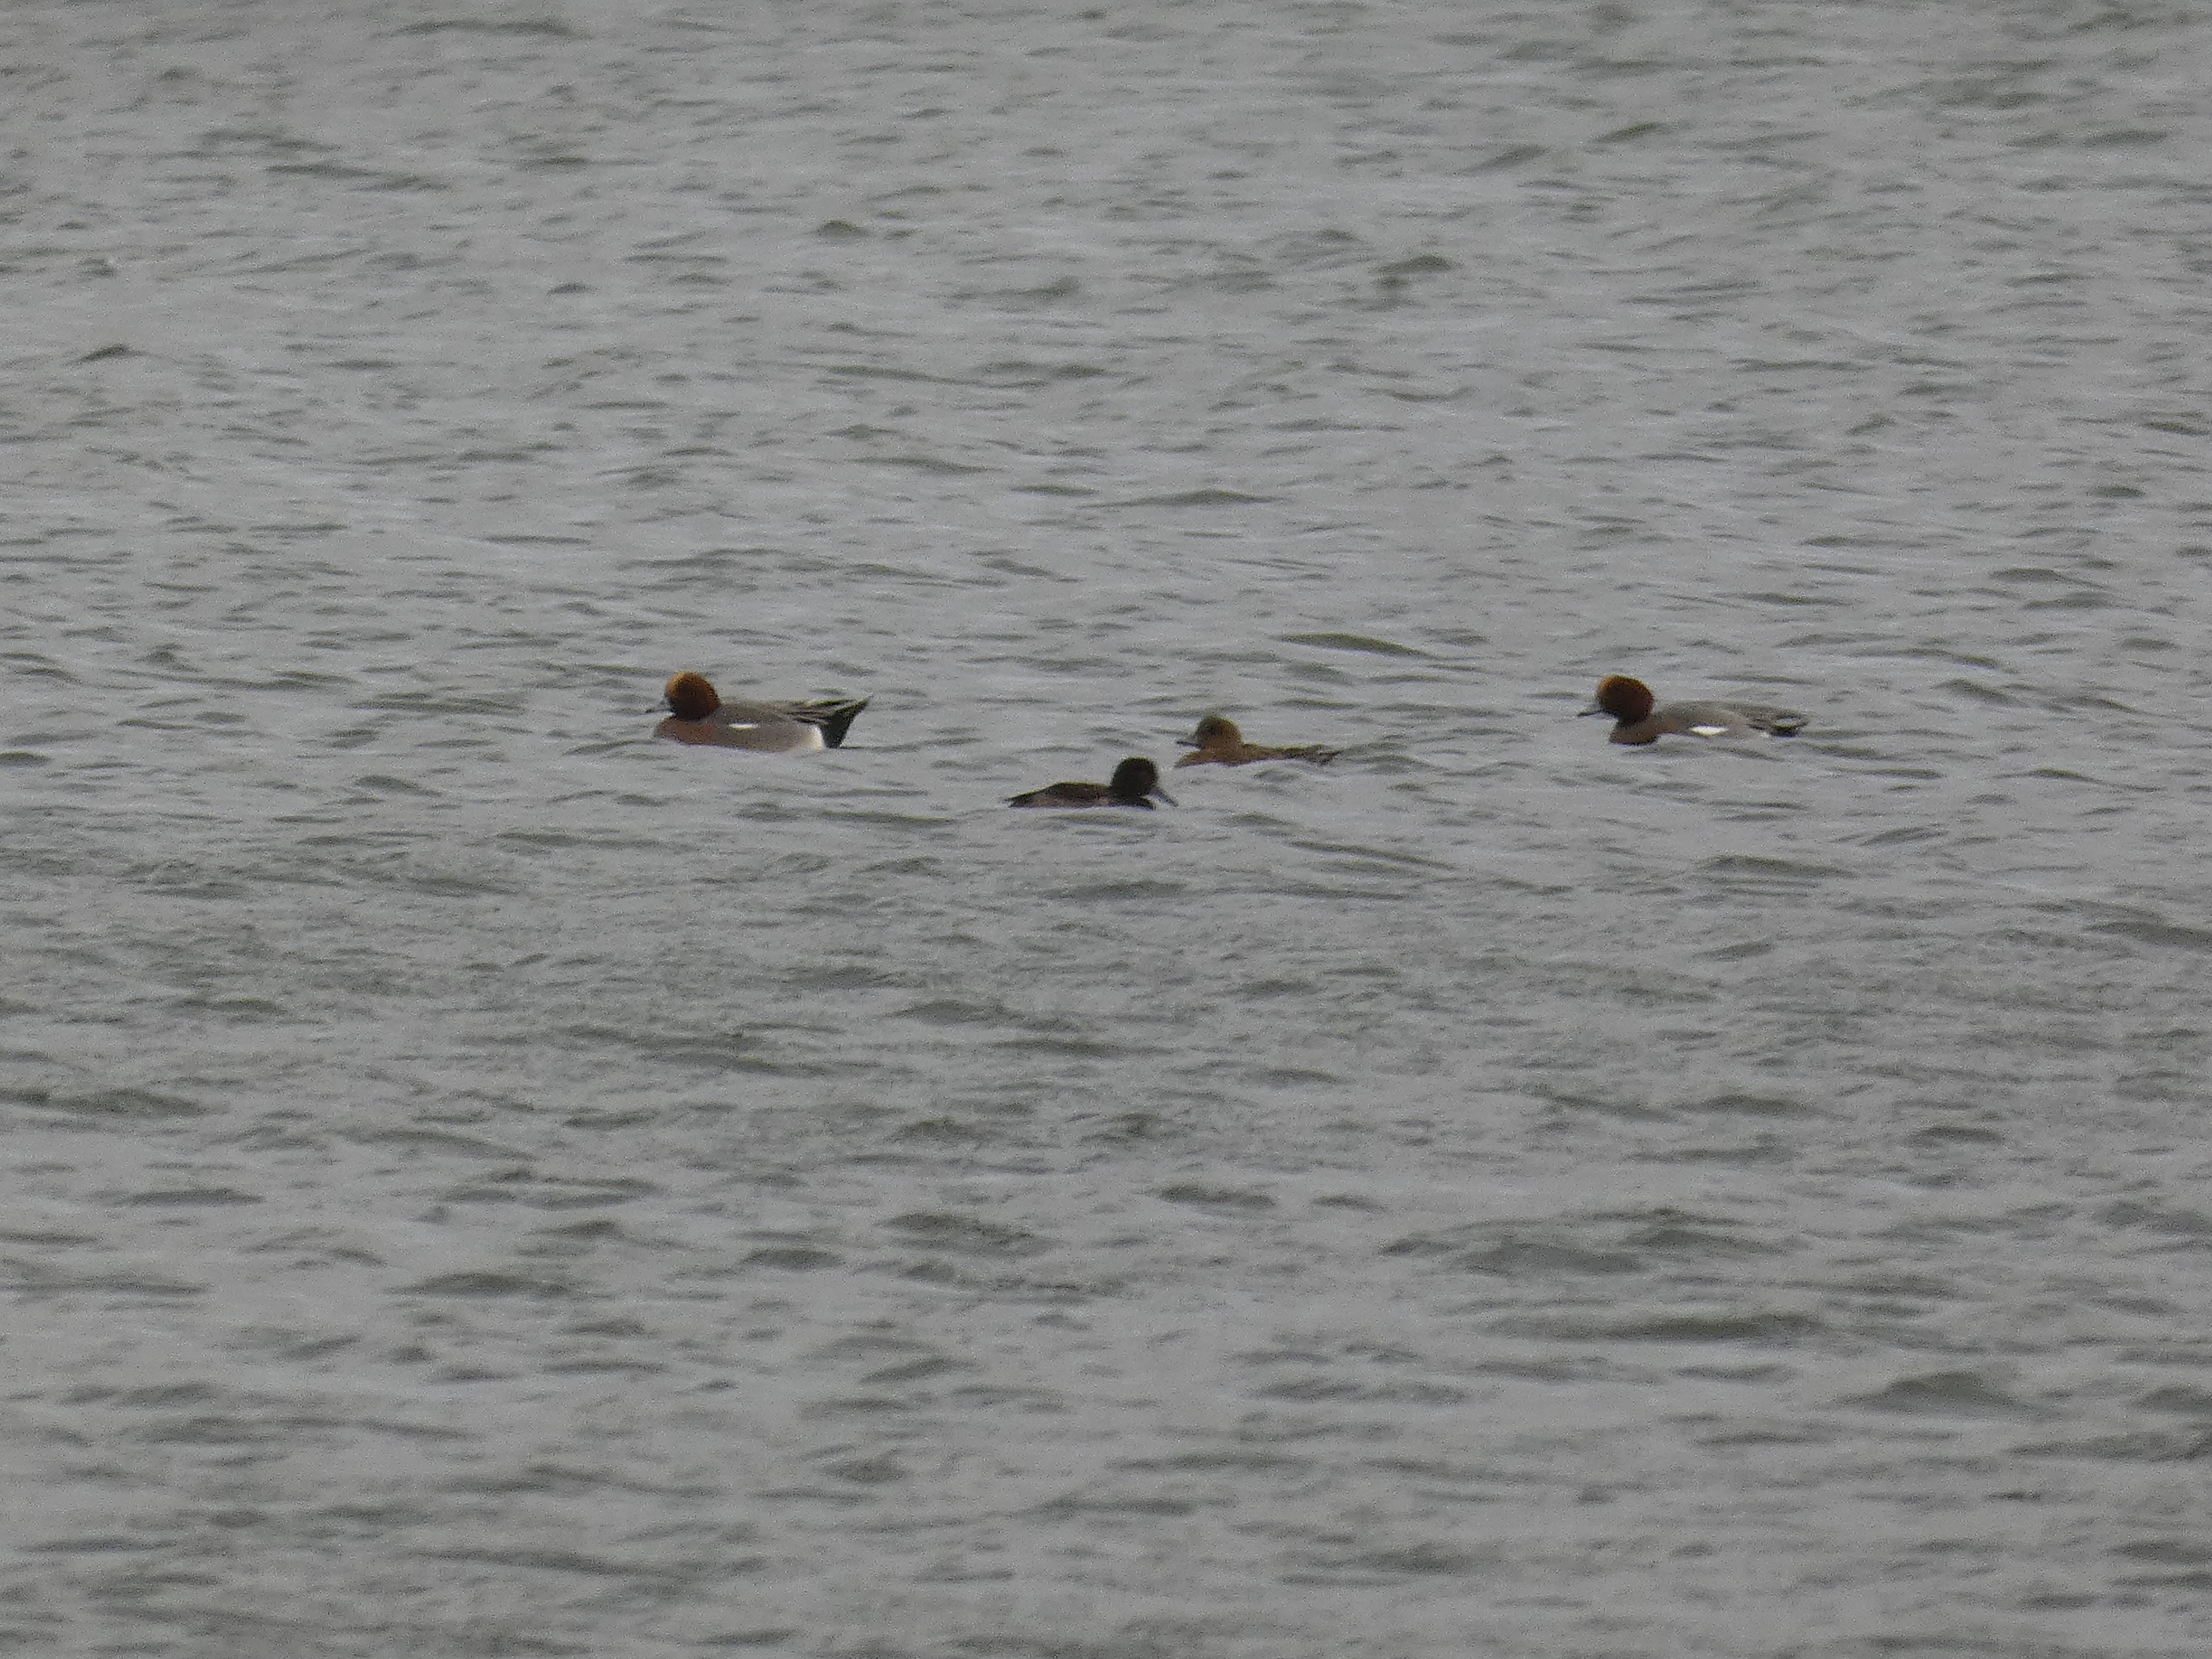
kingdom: Animalia
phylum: Chordata
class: Aves
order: Anseriformes
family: Anatidae
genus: Mareca
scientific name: Mareca penelope
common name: Pibeand
